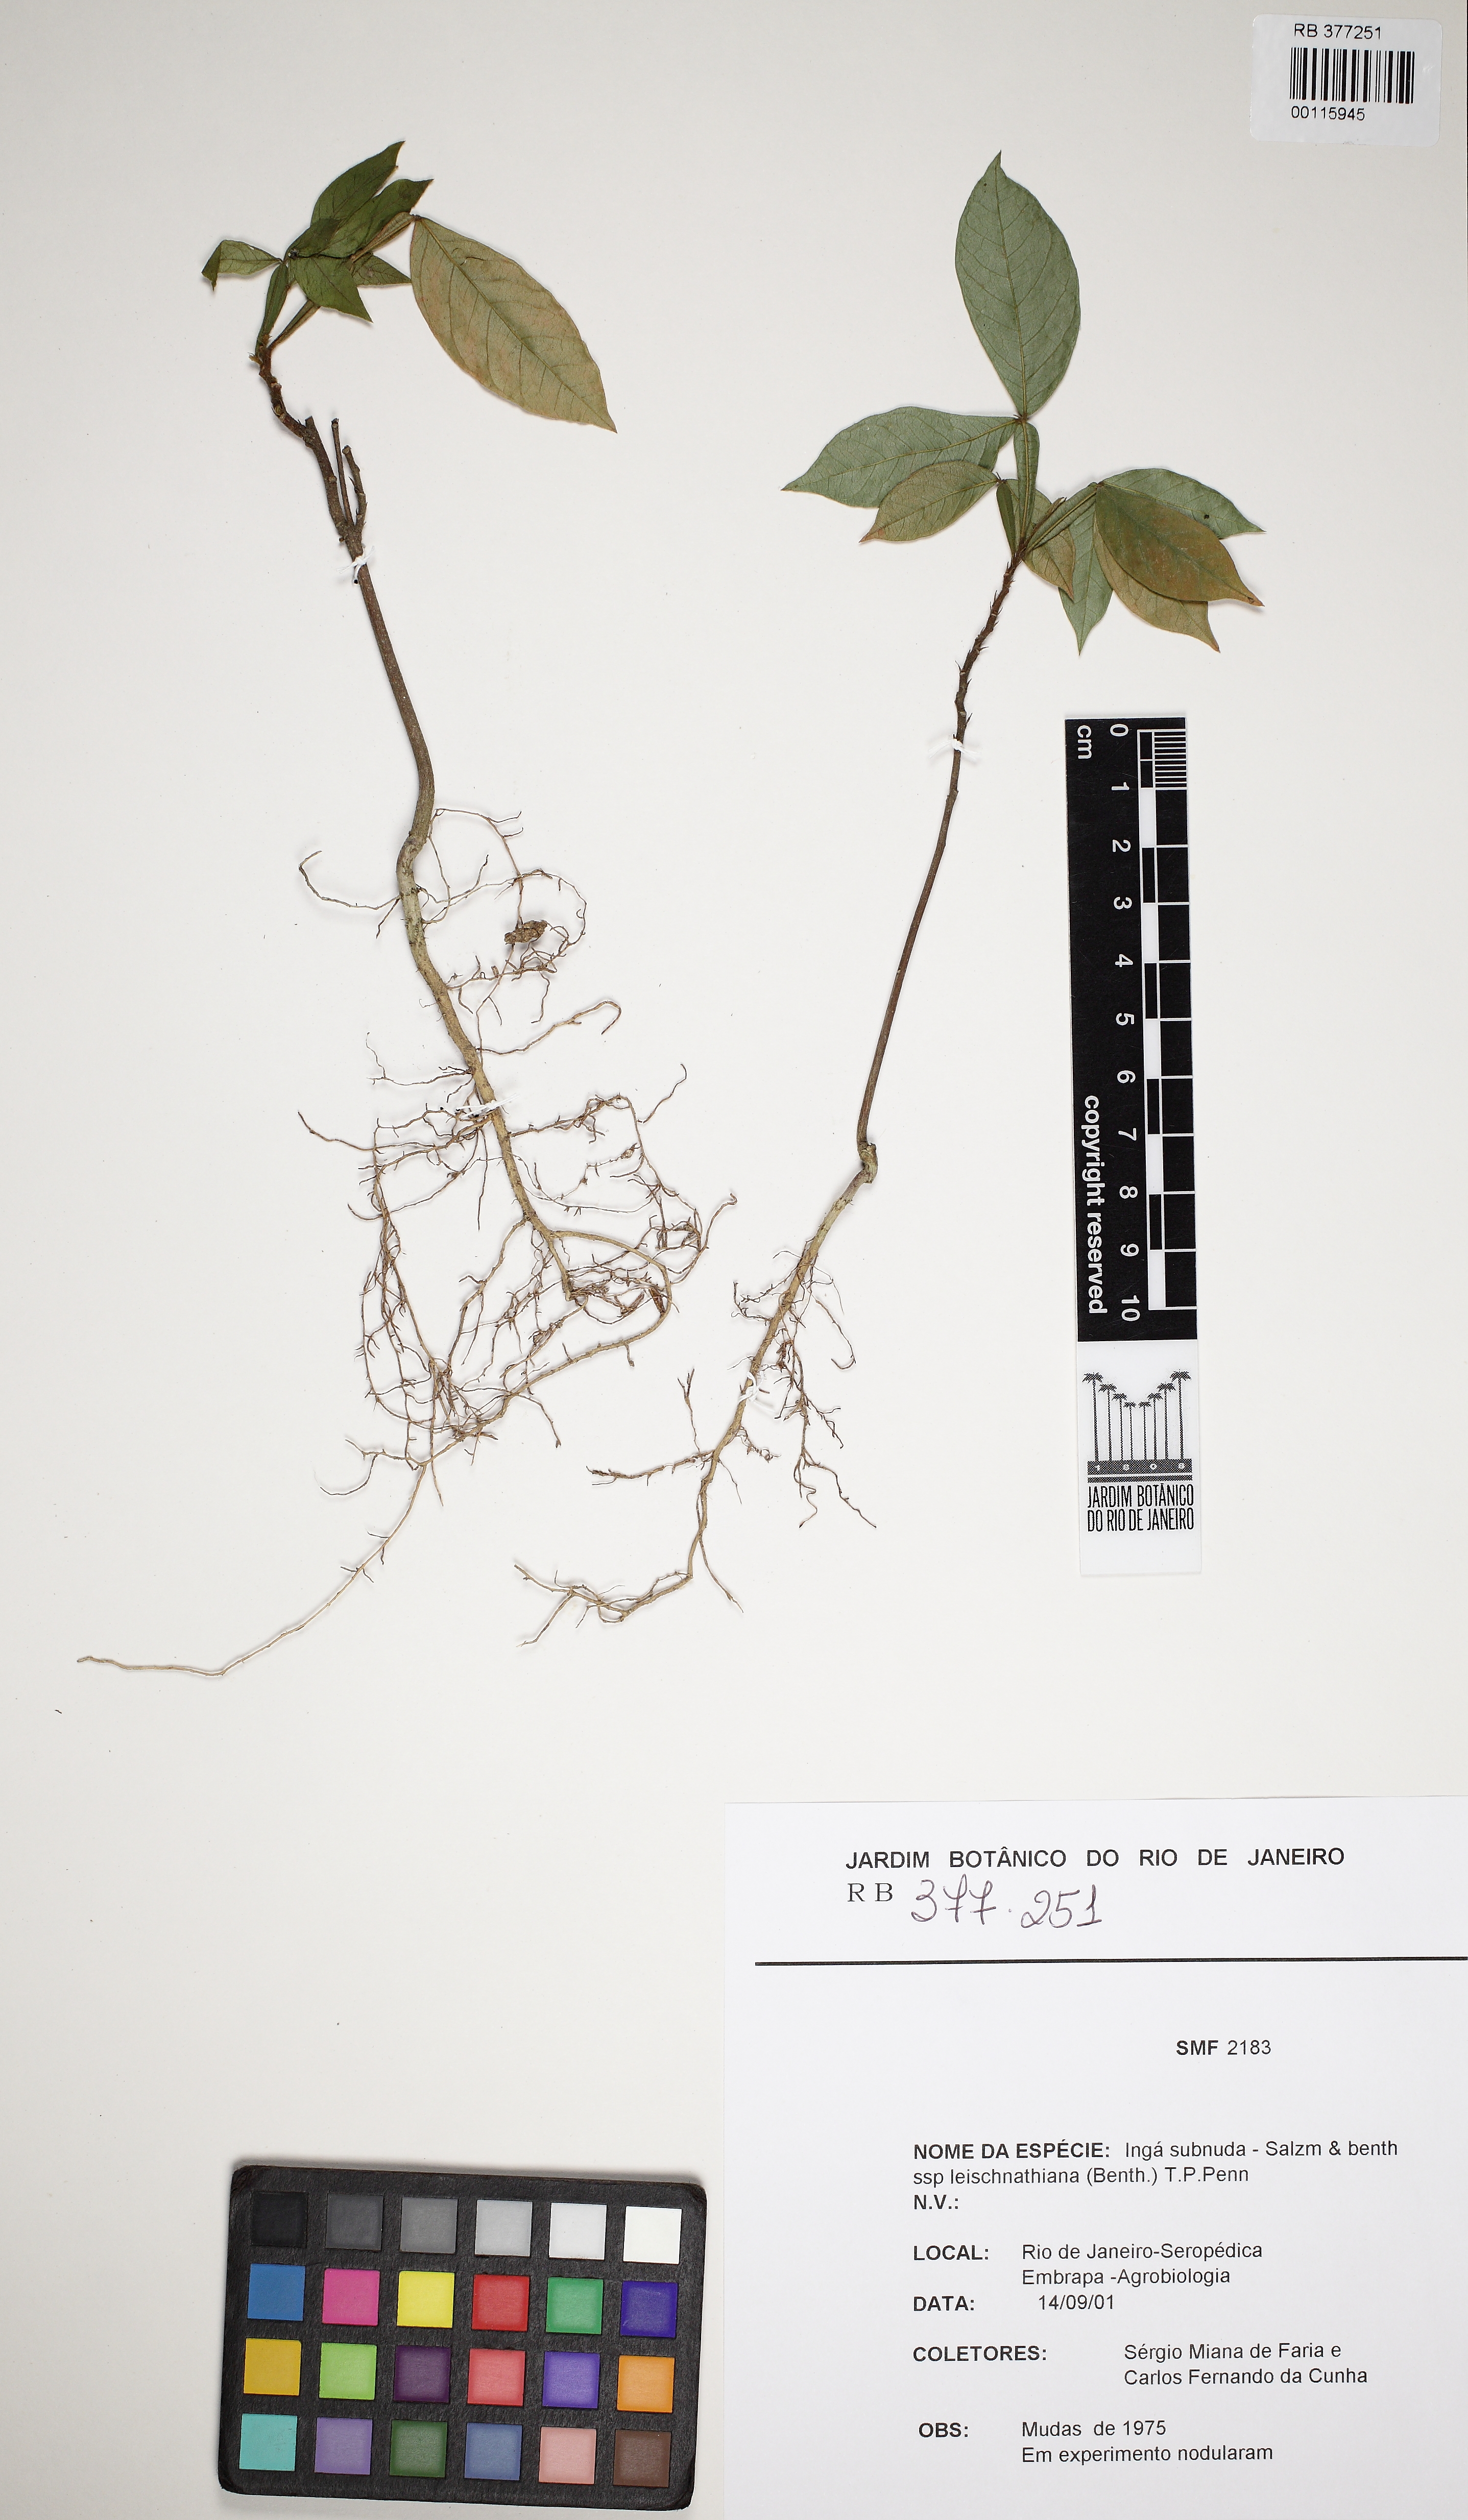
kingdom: Plantae
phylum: Tracheophyta
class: Magnoliopsida
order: Fabales
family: Fabaceae
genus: Inga
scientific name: Inga subnuda
